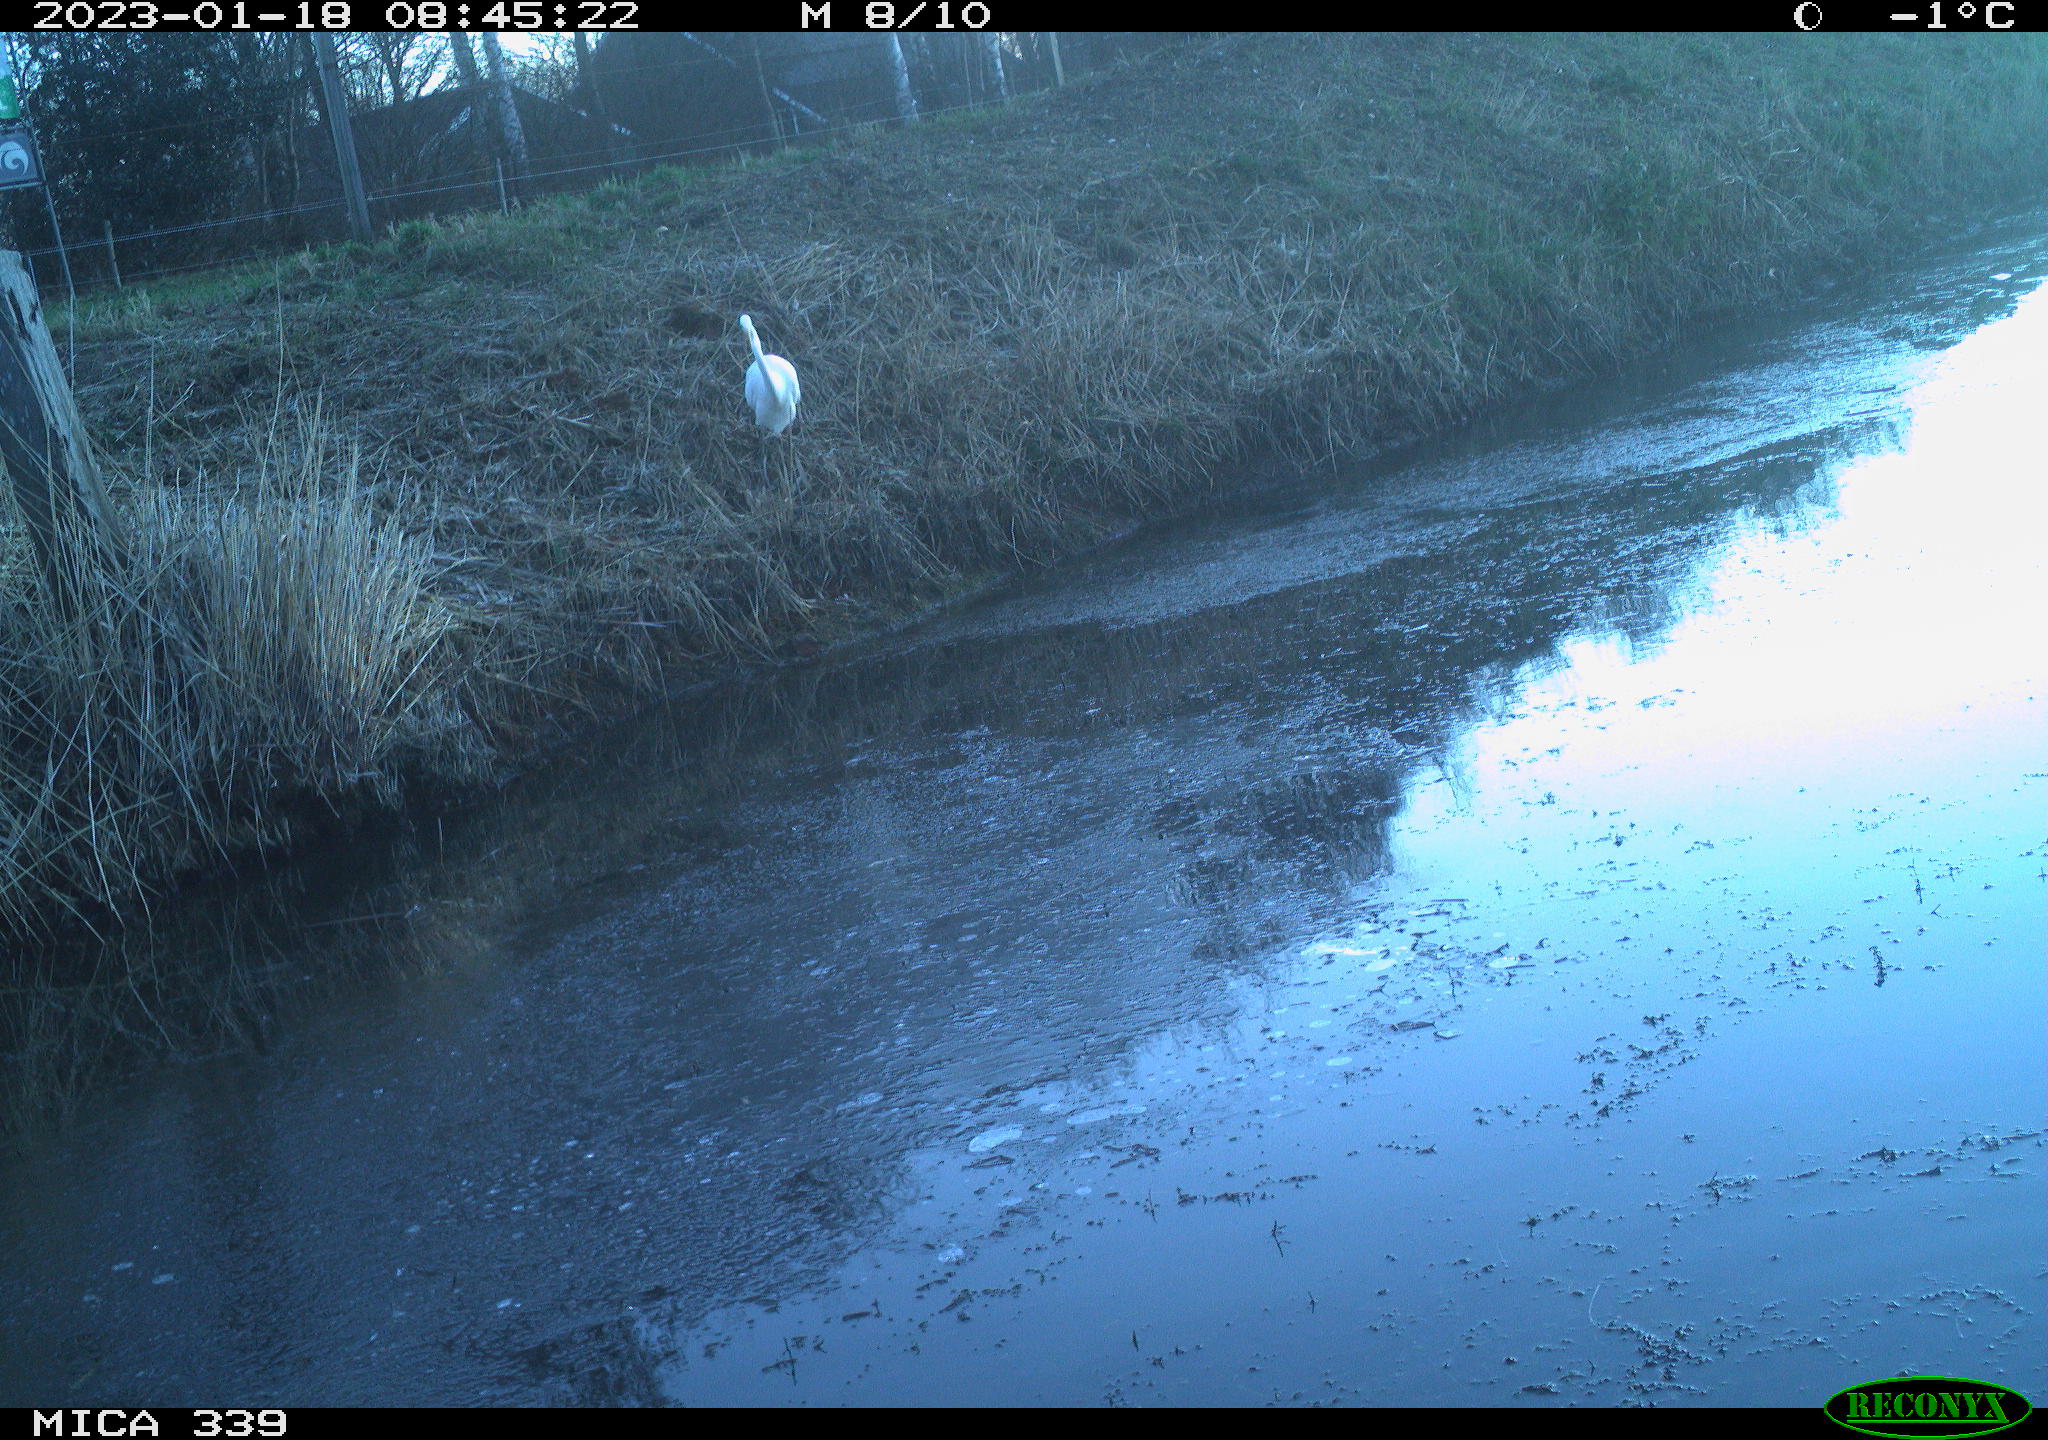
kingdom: Animalia
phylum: Chordata
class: Aves
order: Pelecaniformes
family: Ardeidae
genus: Ardea
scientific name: Ardea alba
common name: Great egret
